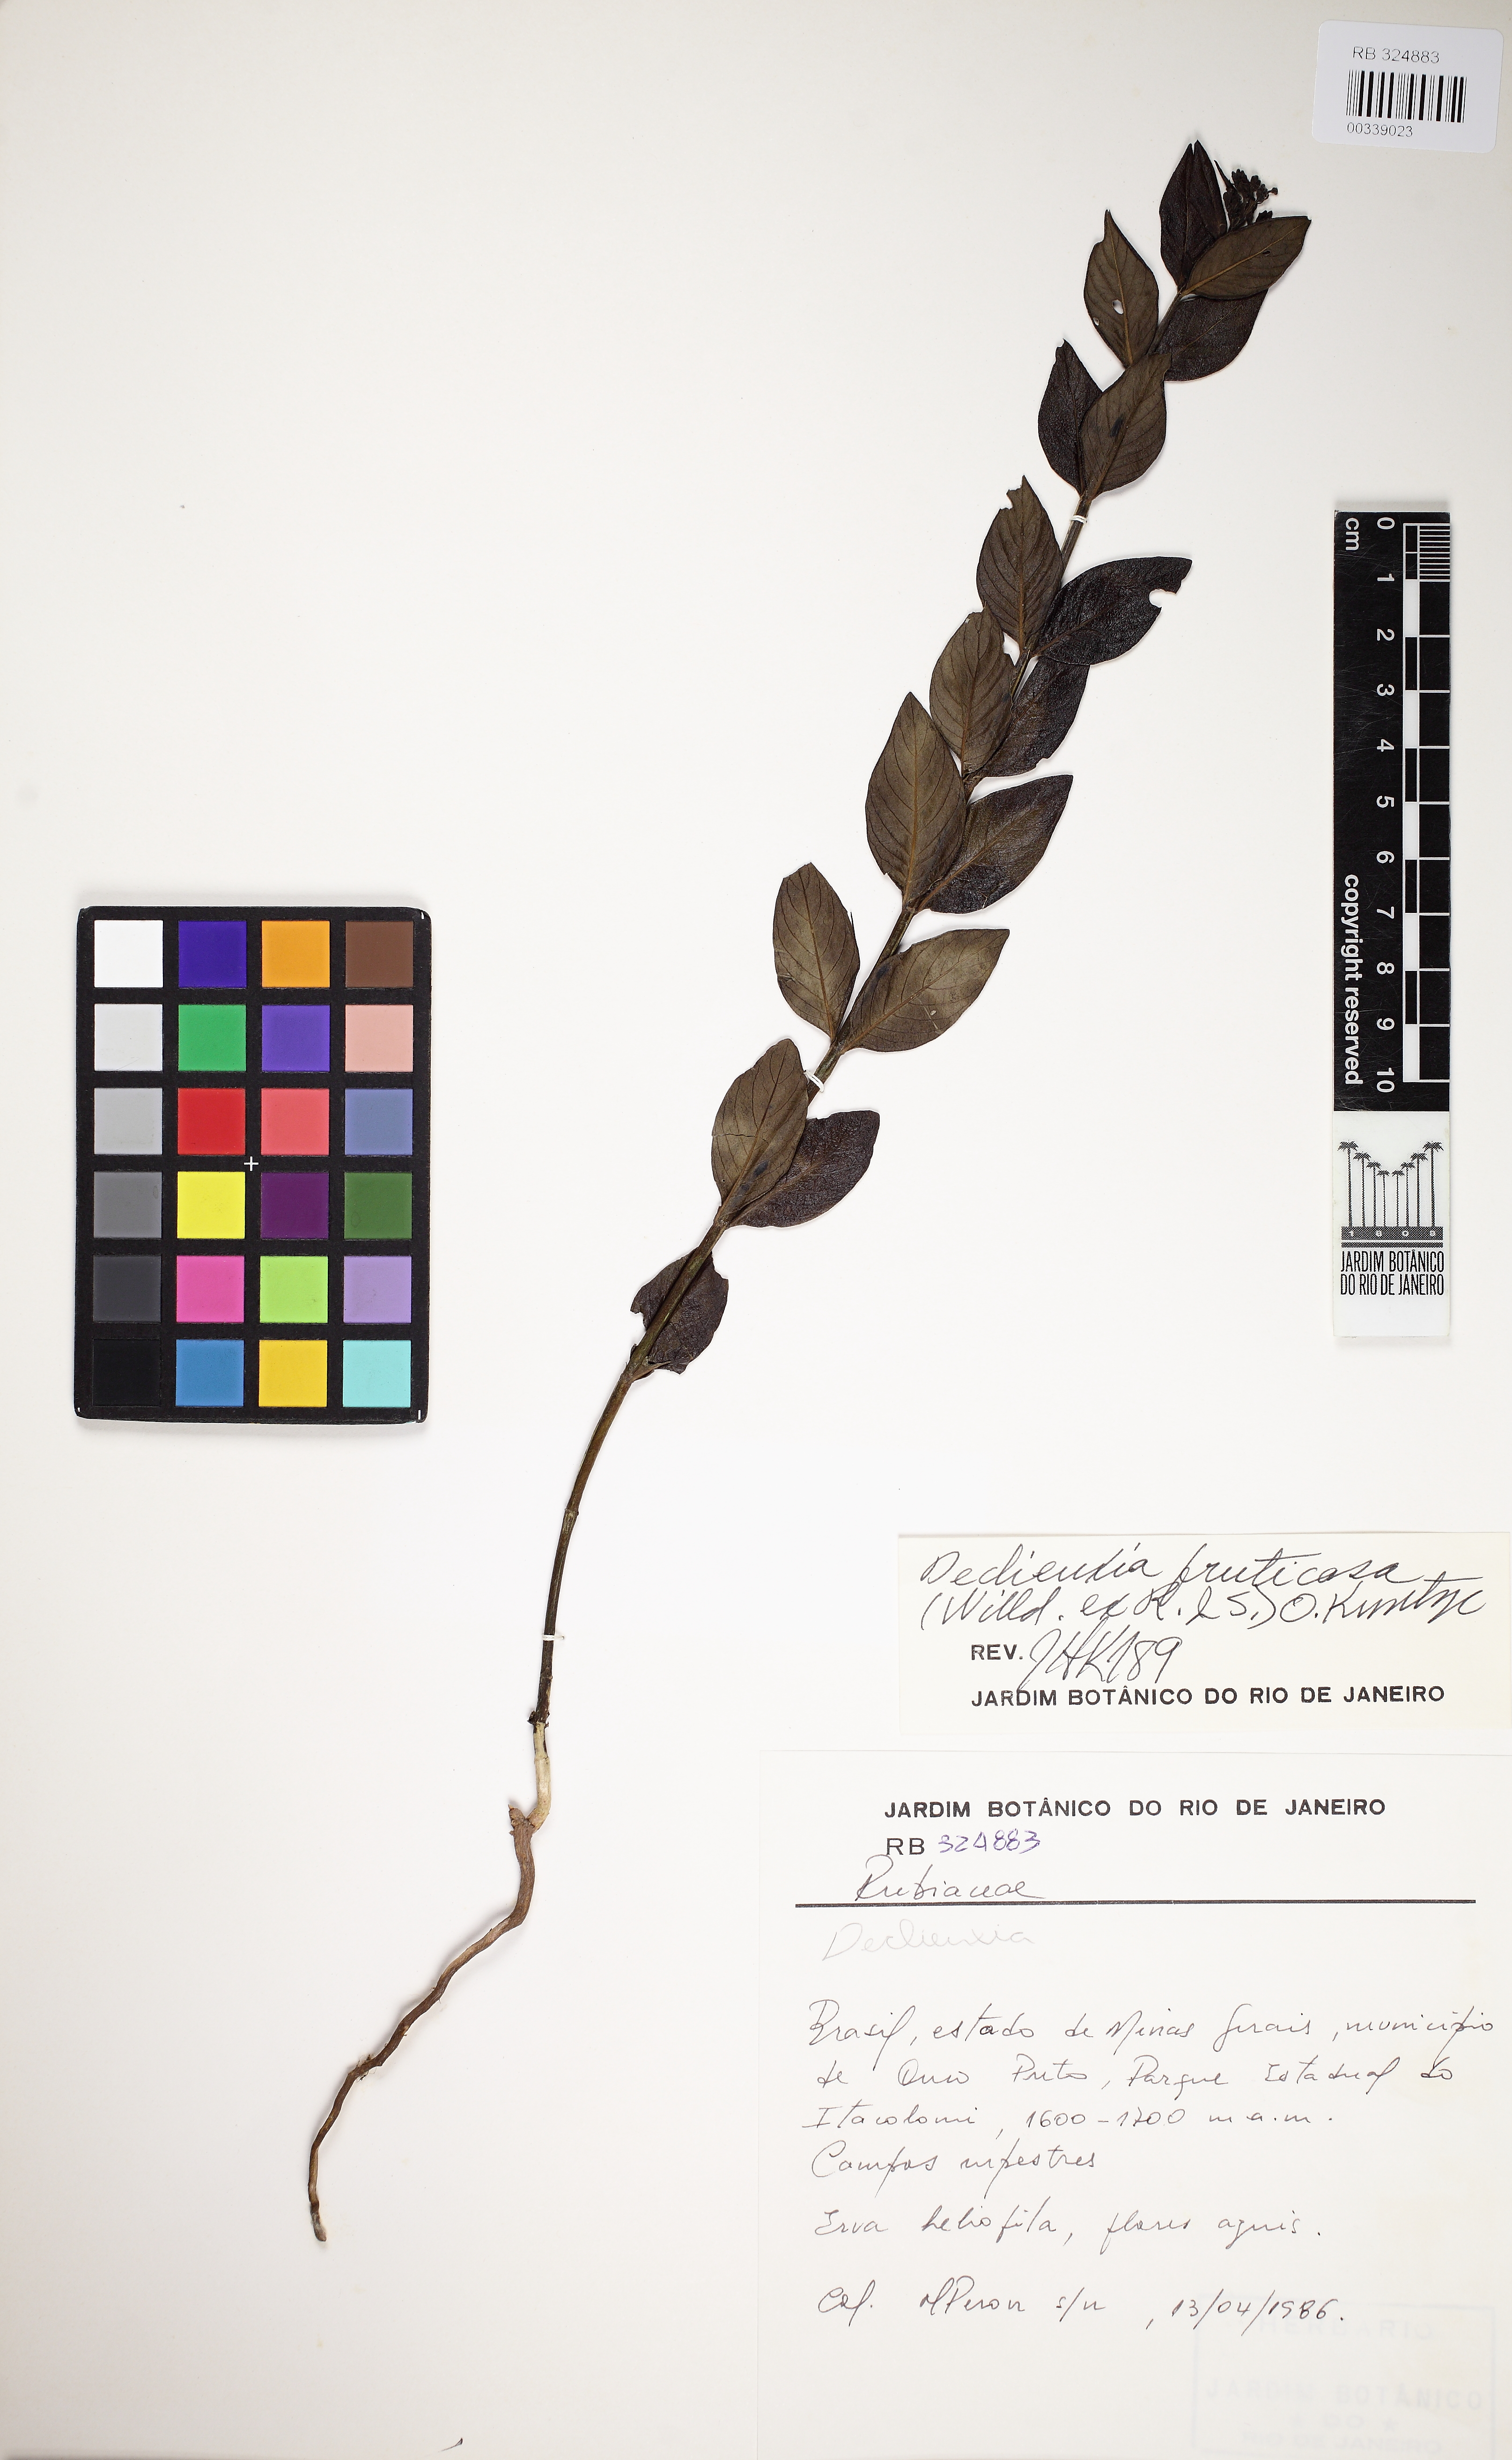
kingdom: Plantae
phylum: Tracheophyta
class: Magnoliopsida
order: Gentianales
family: Rubiaceae
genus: Declieuxia
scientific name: Declieuxia fruticosa
